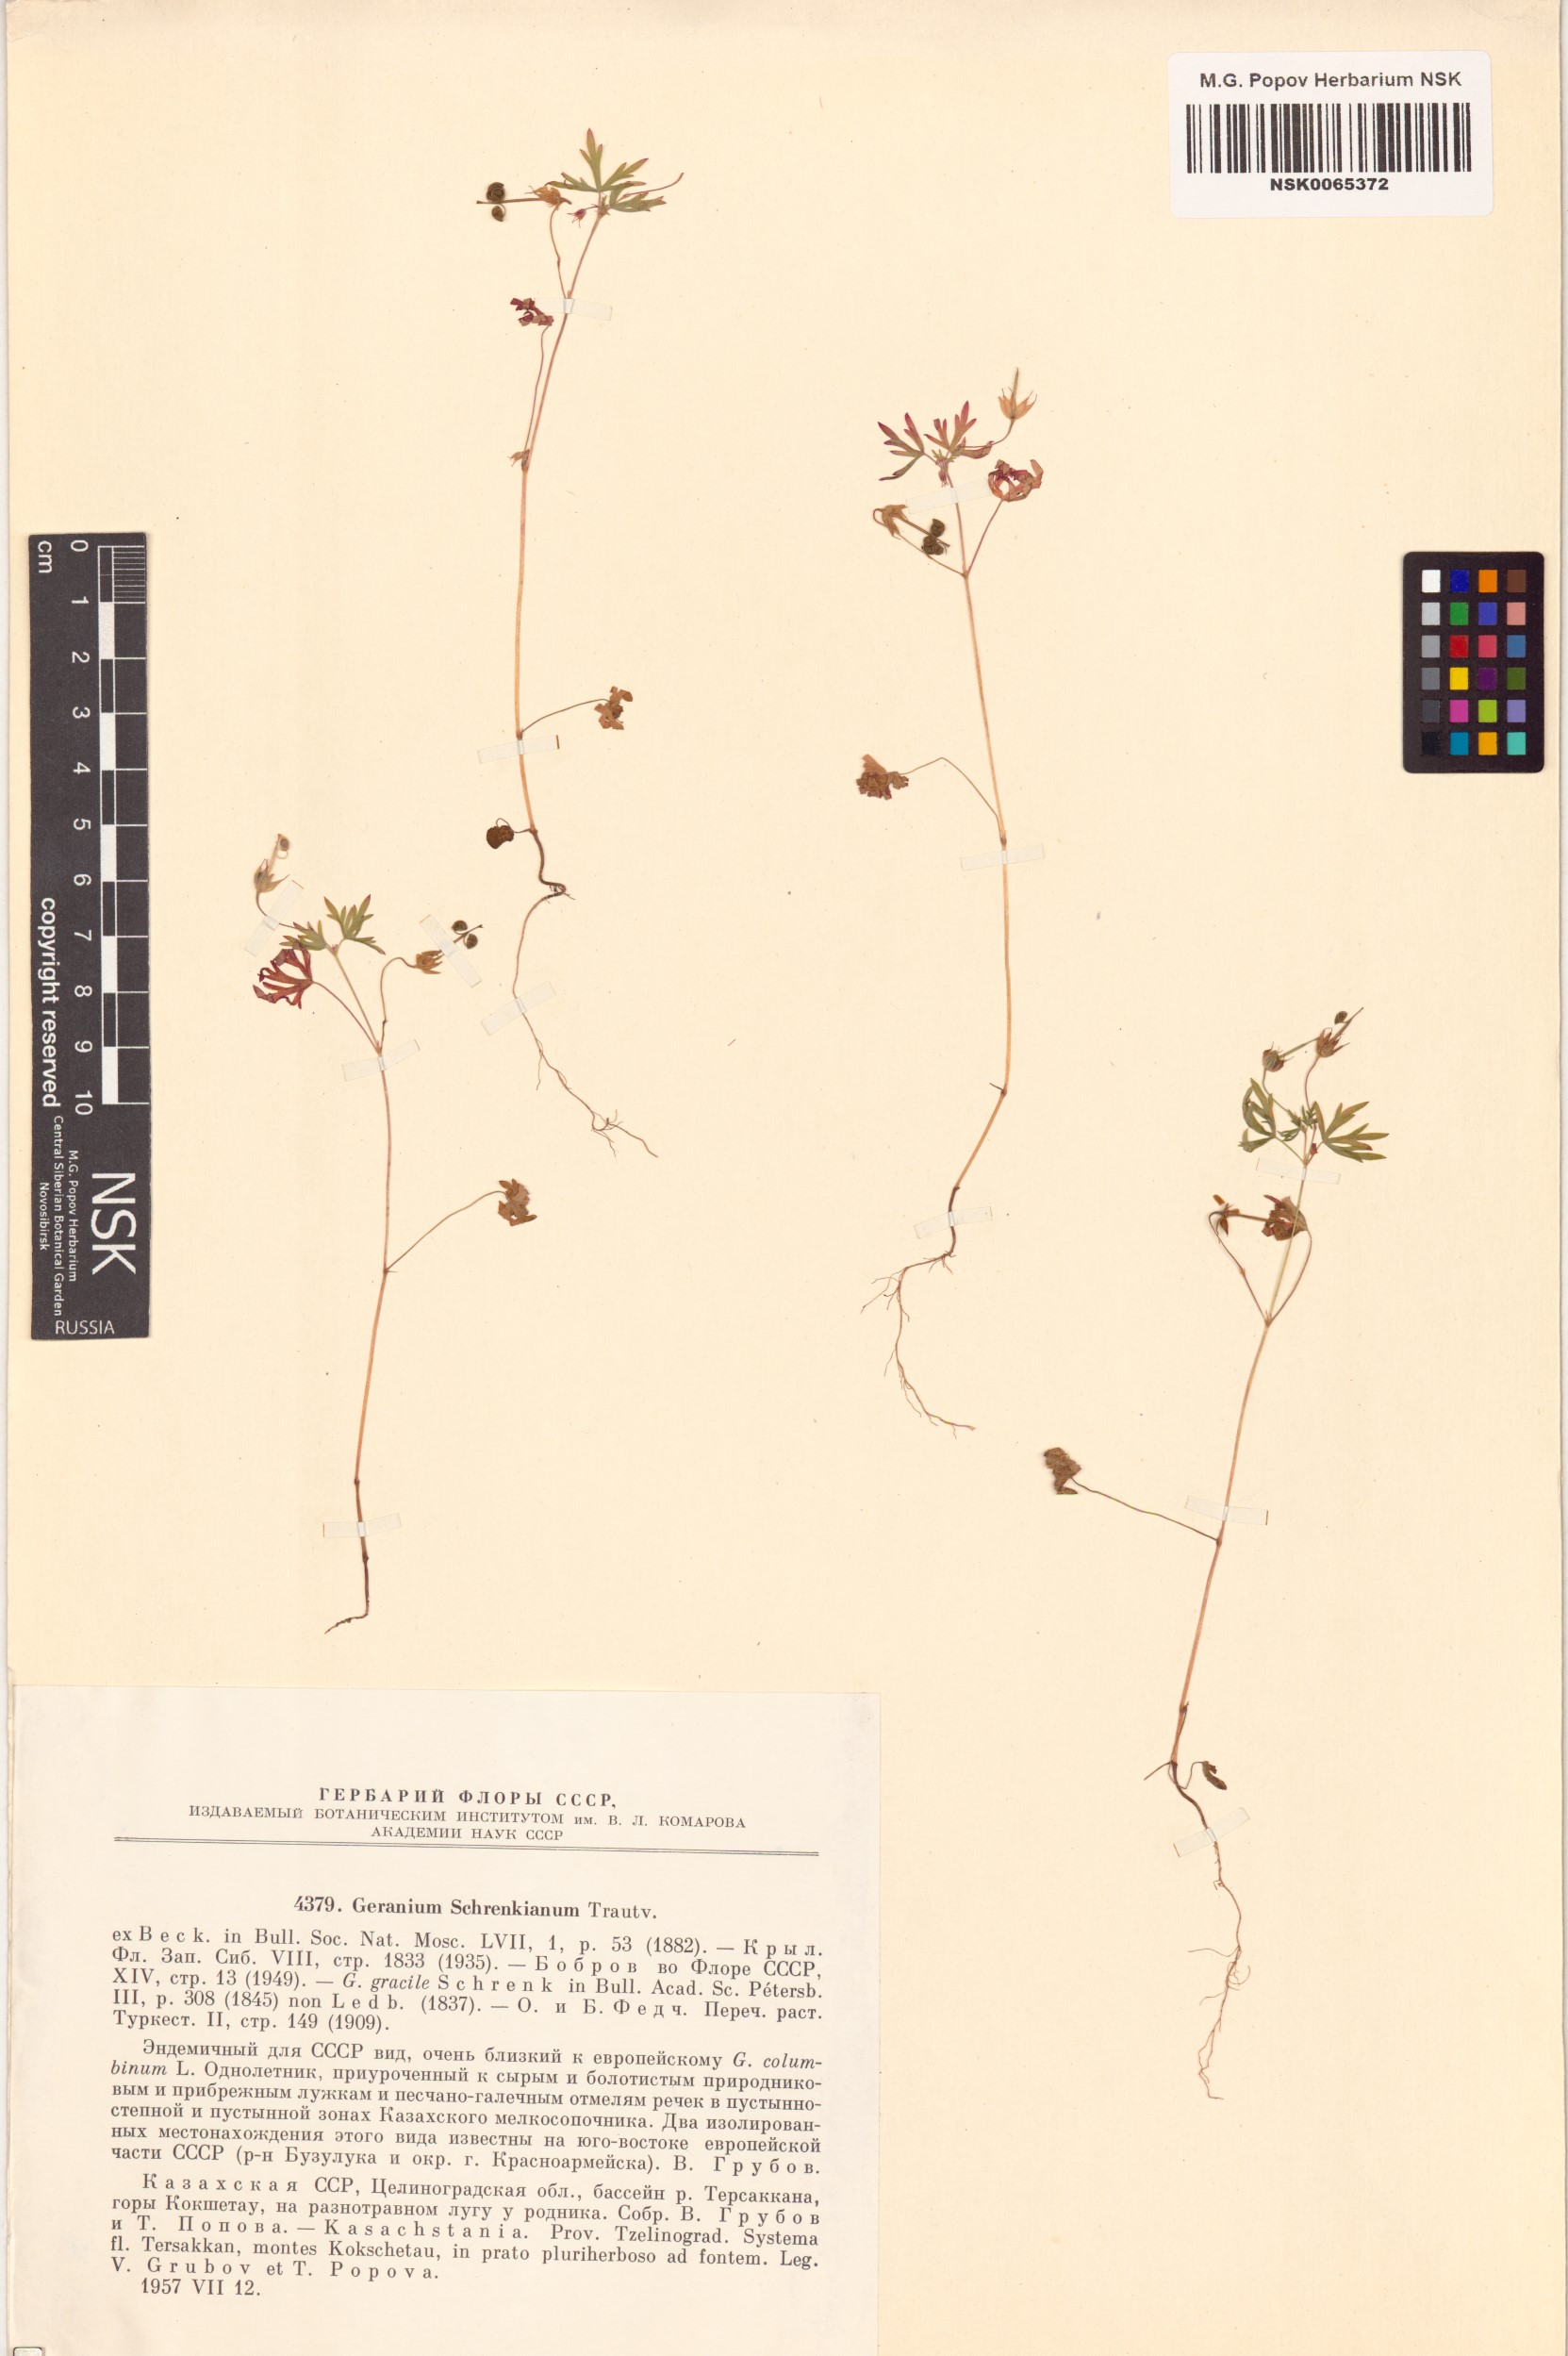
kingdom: Plantae
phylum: Tracheophyta
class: Magnoliopsida
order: Geraniales
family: Geraniaceae
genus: Geranium
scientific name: Geranium schrenkianum
